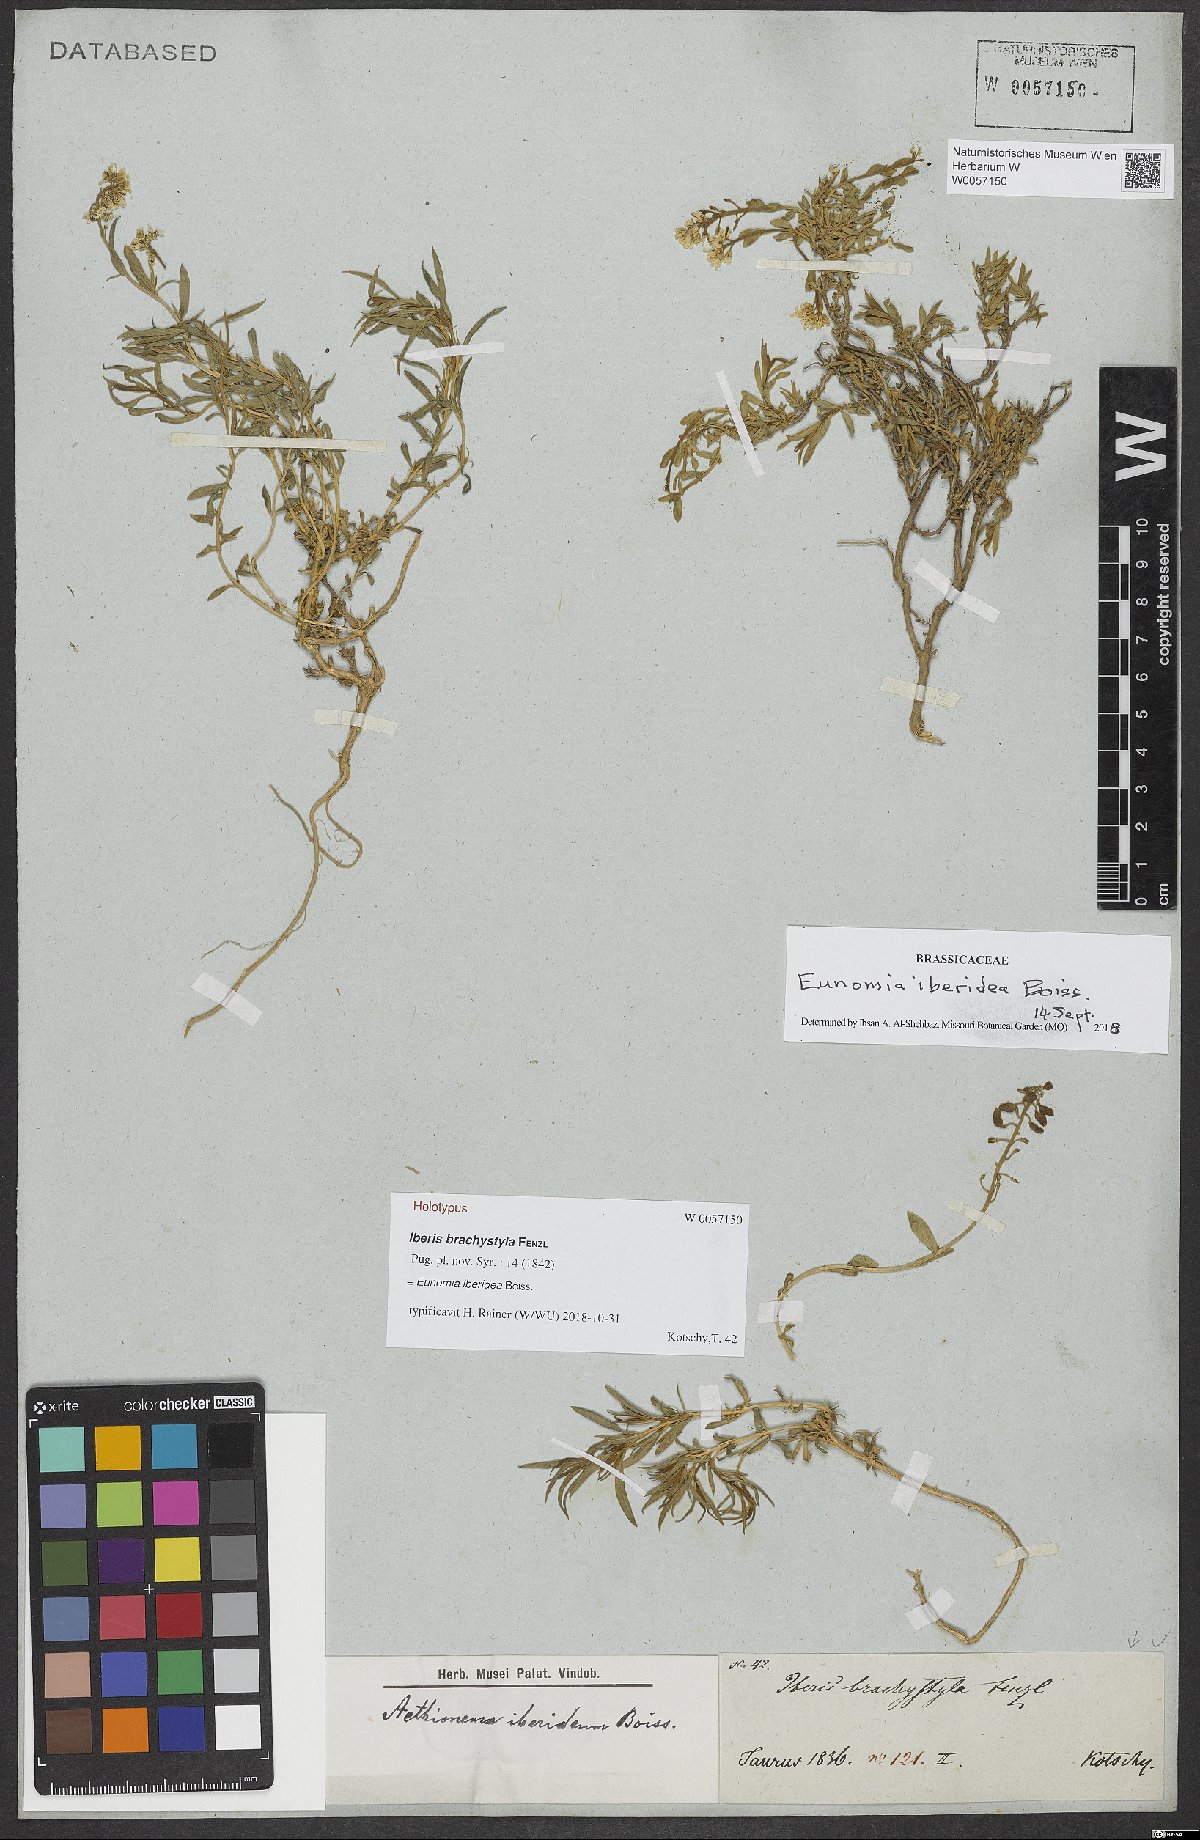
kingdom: Plantae
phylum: Tracheophyta
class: Magnoliopsida
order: Brassicales
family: Brassicaceae
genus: Noccaea
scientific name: Noccaea iberidea
